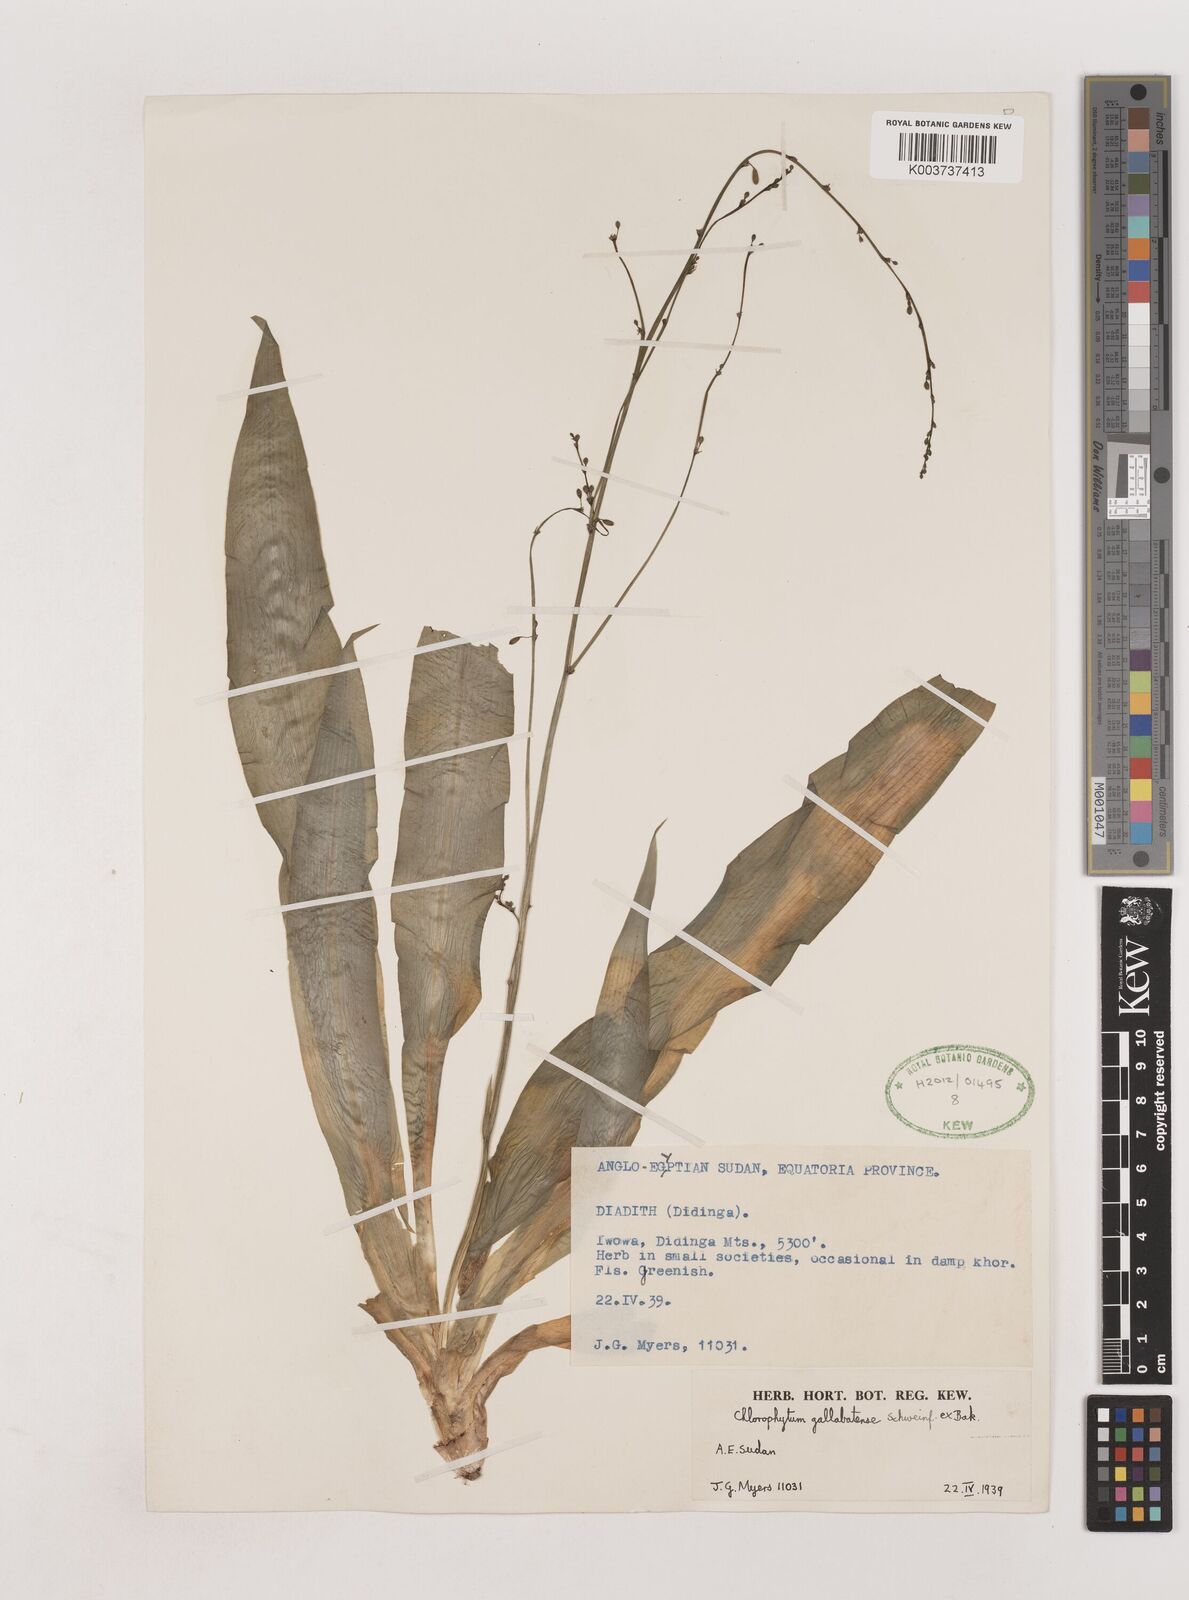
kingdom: Plantae
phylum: Tracheophyta
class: Liliopsida
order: Asparagales
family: Asparagaceae
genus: Chlorophytum
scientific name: Chlorophytum gallabatense
